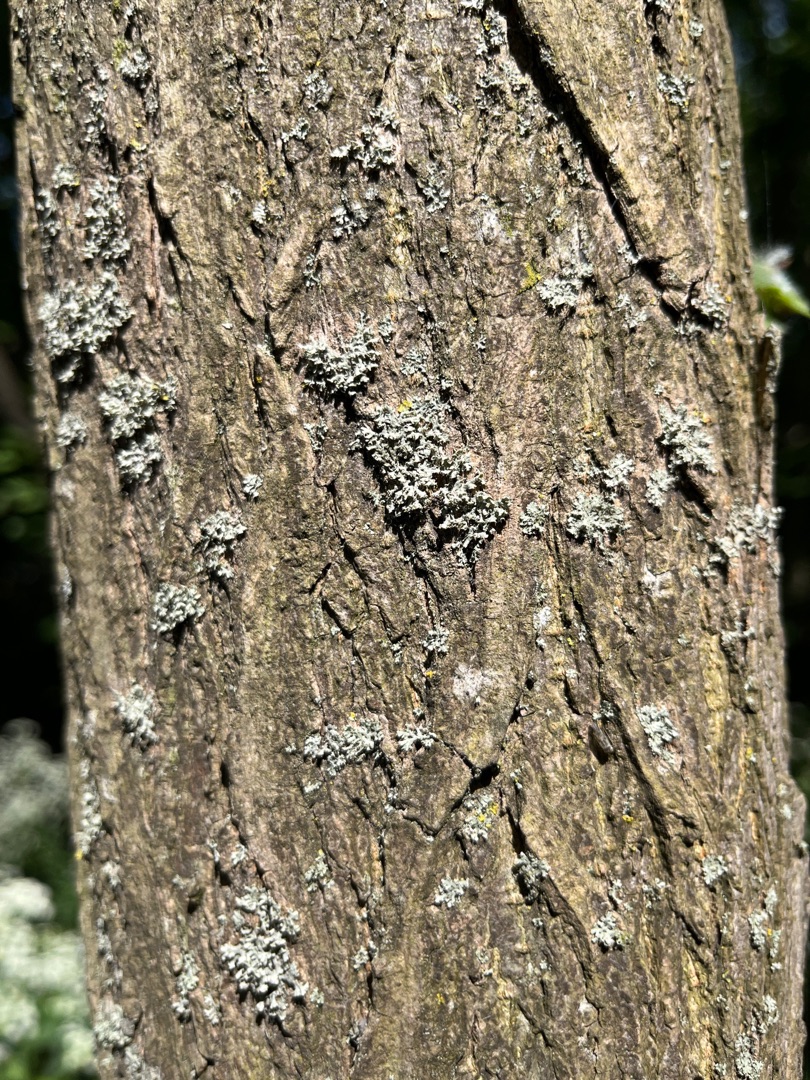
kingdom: Fungi
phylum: Ascomycota
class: Lecanoromycetes
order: Lecanorales
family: Parmeliaceae
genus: Hypogymnia
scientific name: Hypogymnia physodes
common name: Almindelig kvistlav
